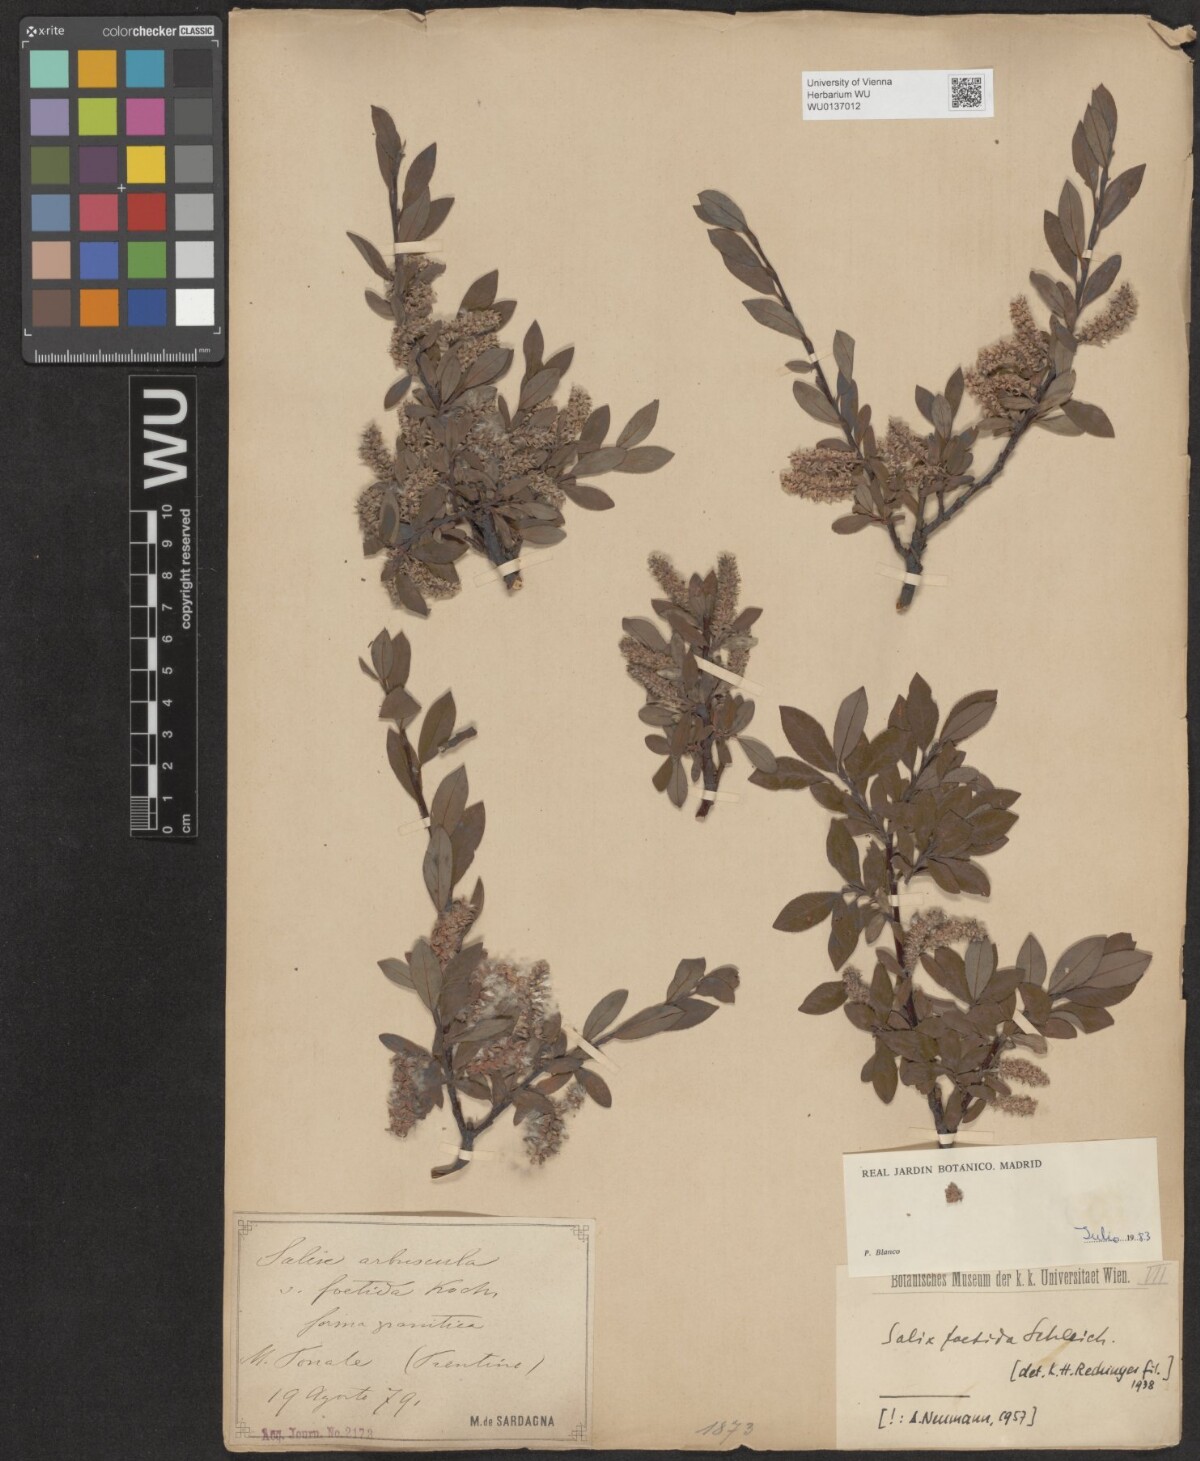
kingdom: Plantae
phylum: Tracheophyta
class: Magnoliopsida
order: Malpighiales
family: Salicaceae
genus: Salix
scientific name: Salix foetida
